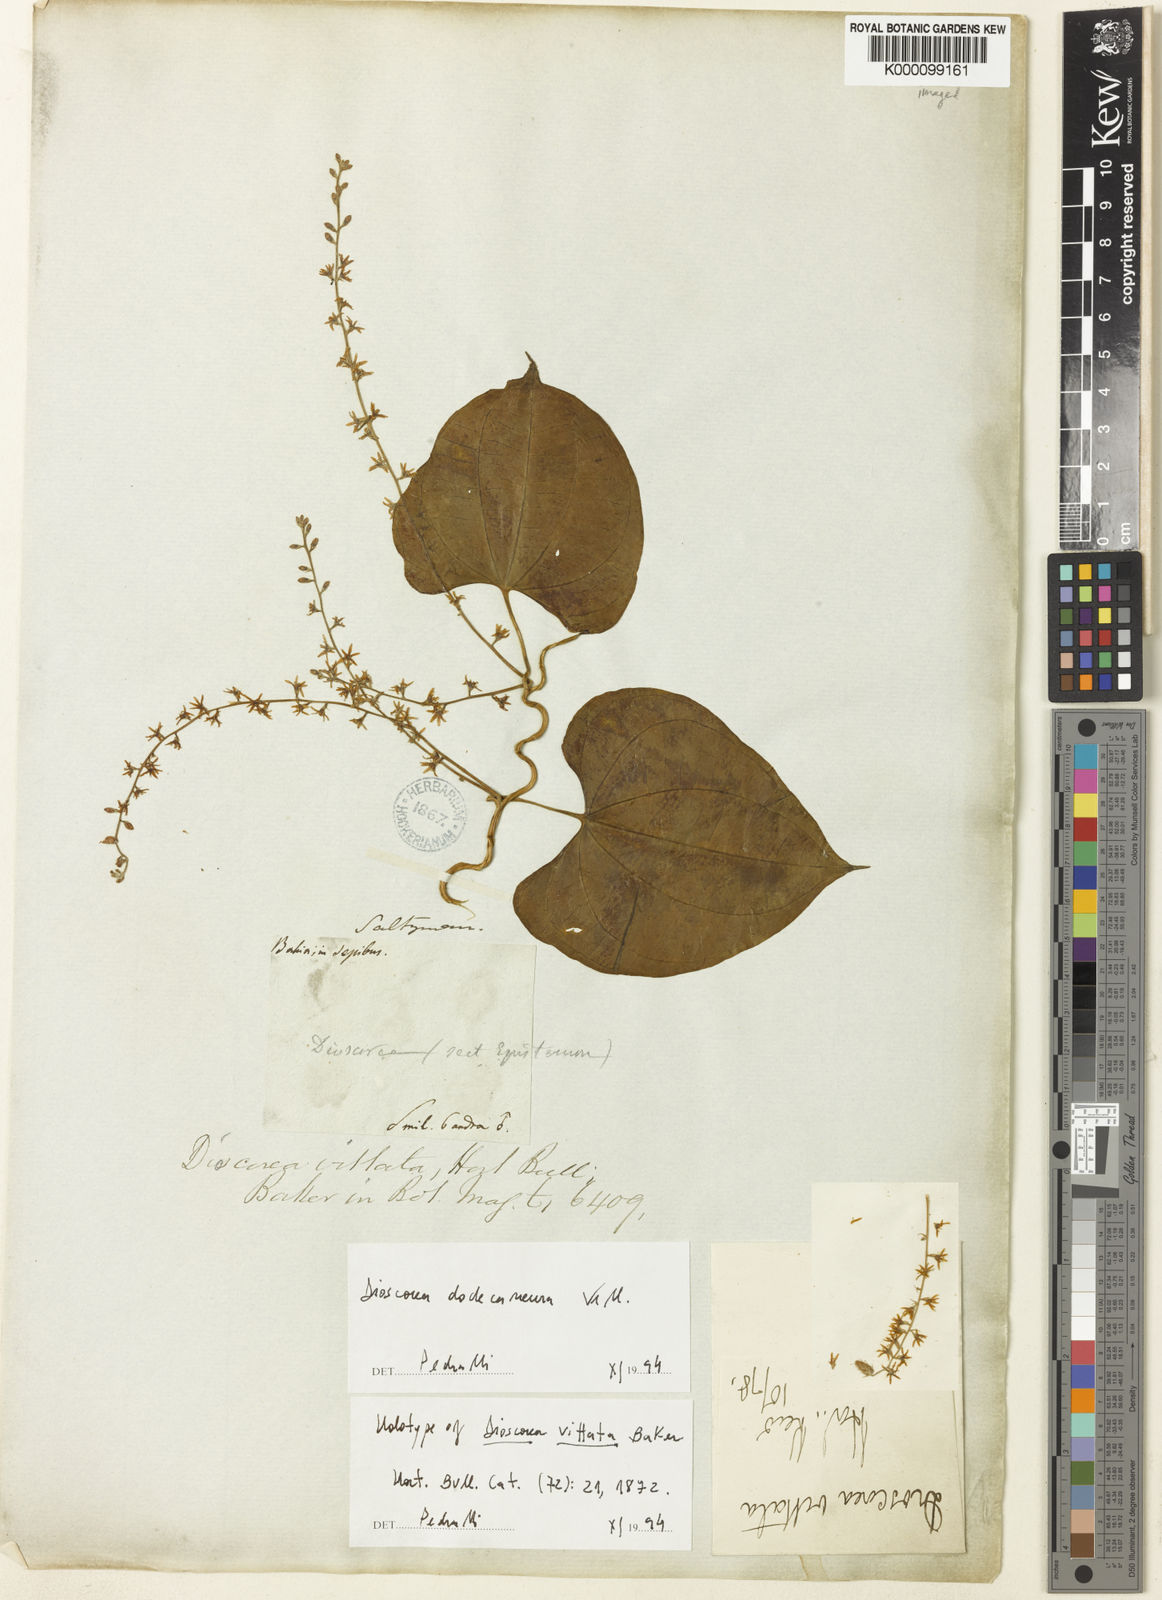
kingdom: Plantae
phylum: Tracheophyta
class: Liliopsida
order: Dioscoreales
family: Dioscoreaceae
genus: Dioscorea
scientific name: Dioscorea dodecaneura
